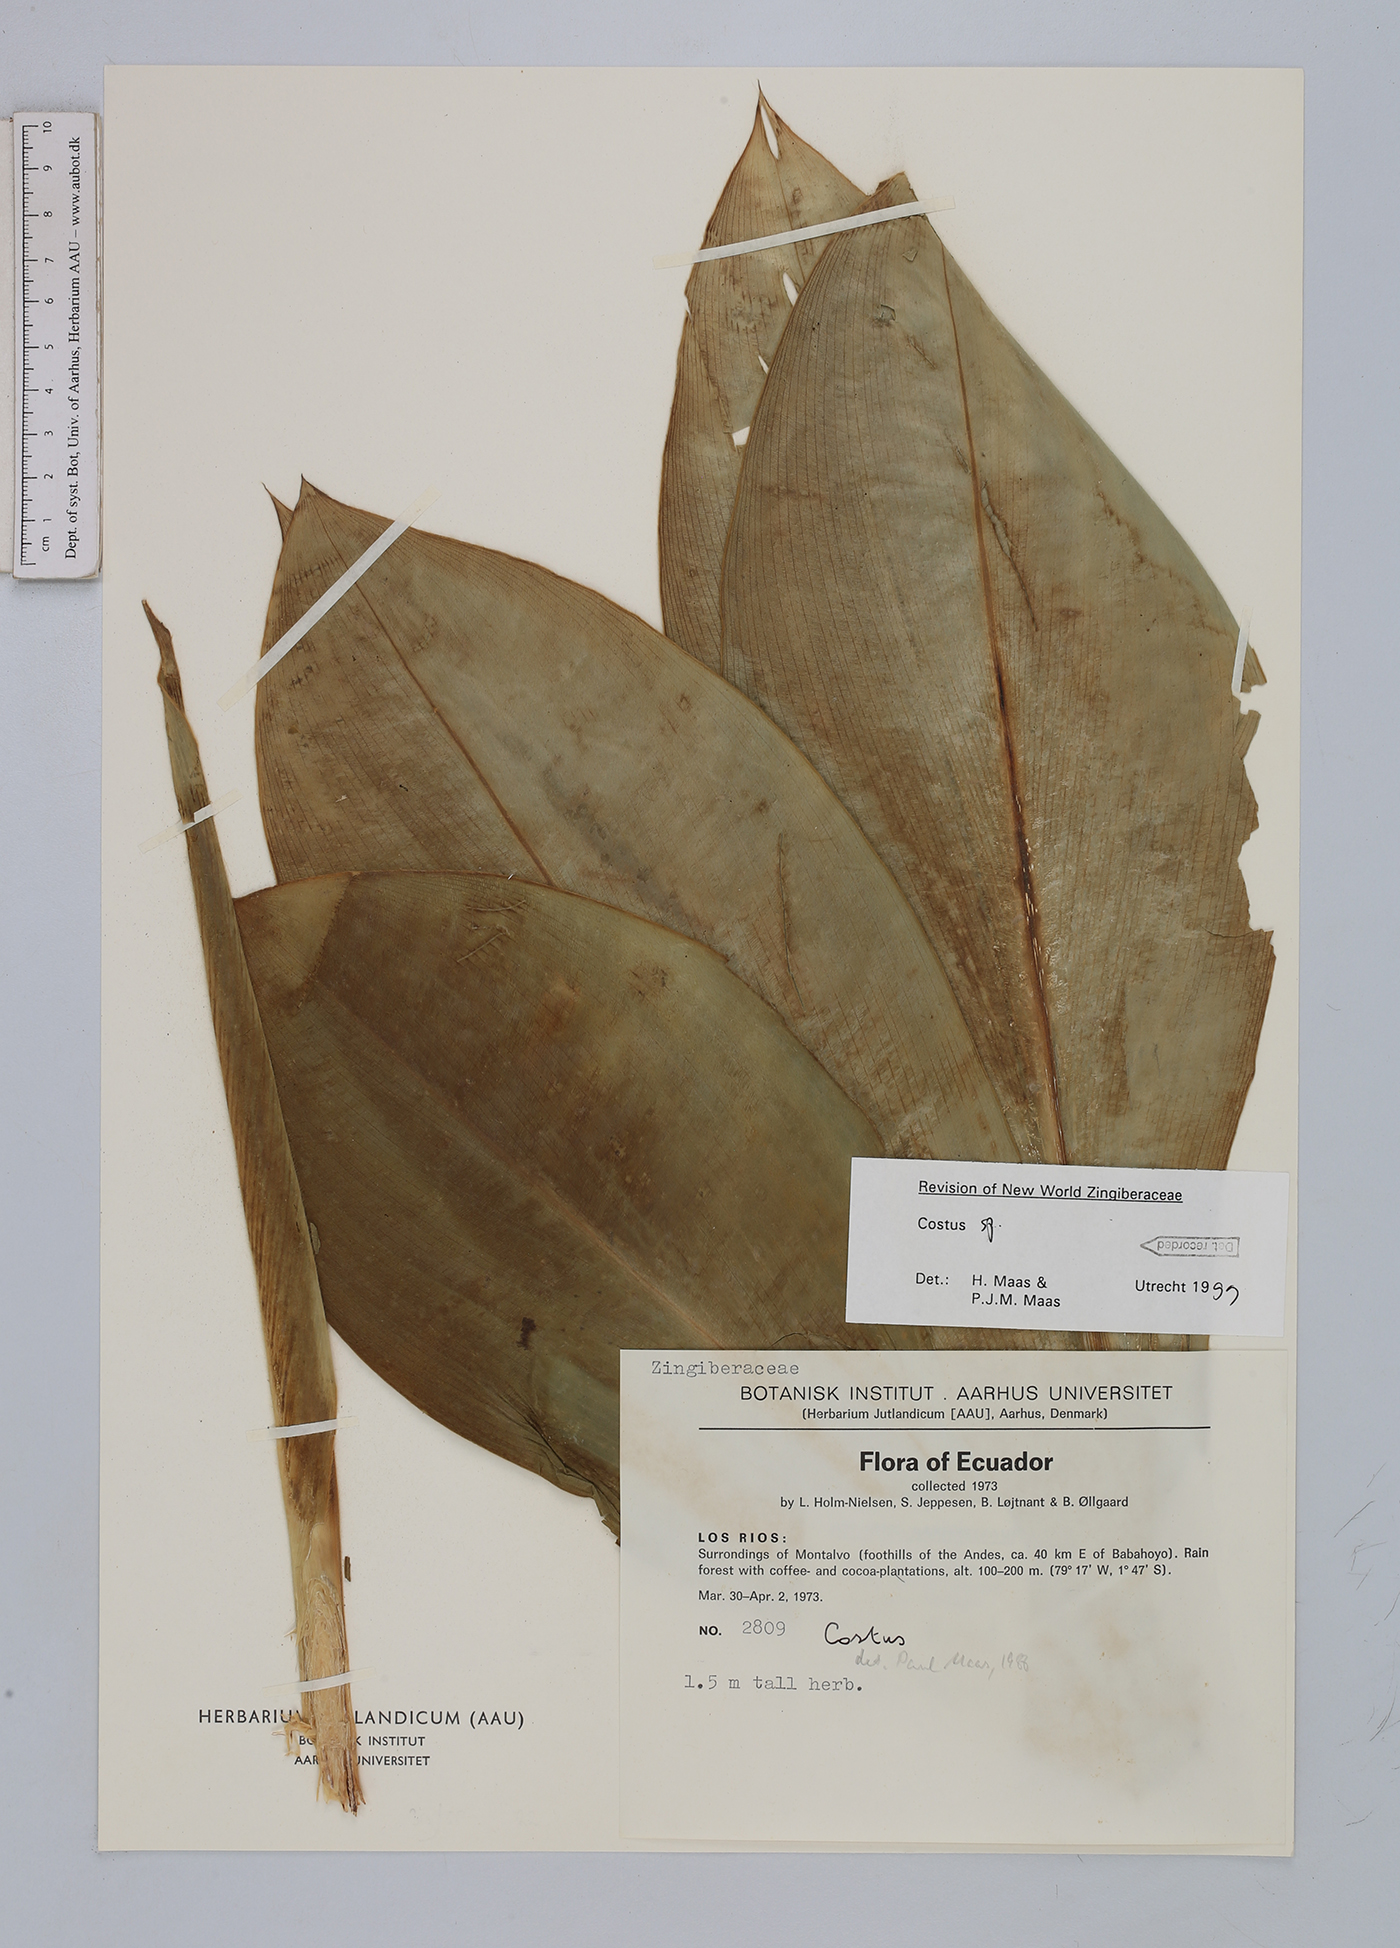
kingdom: Plantae
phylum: Tracheophyta
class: Liliopsida
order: Zingiberales
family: Costaceae
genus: Costus
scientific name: Costus
